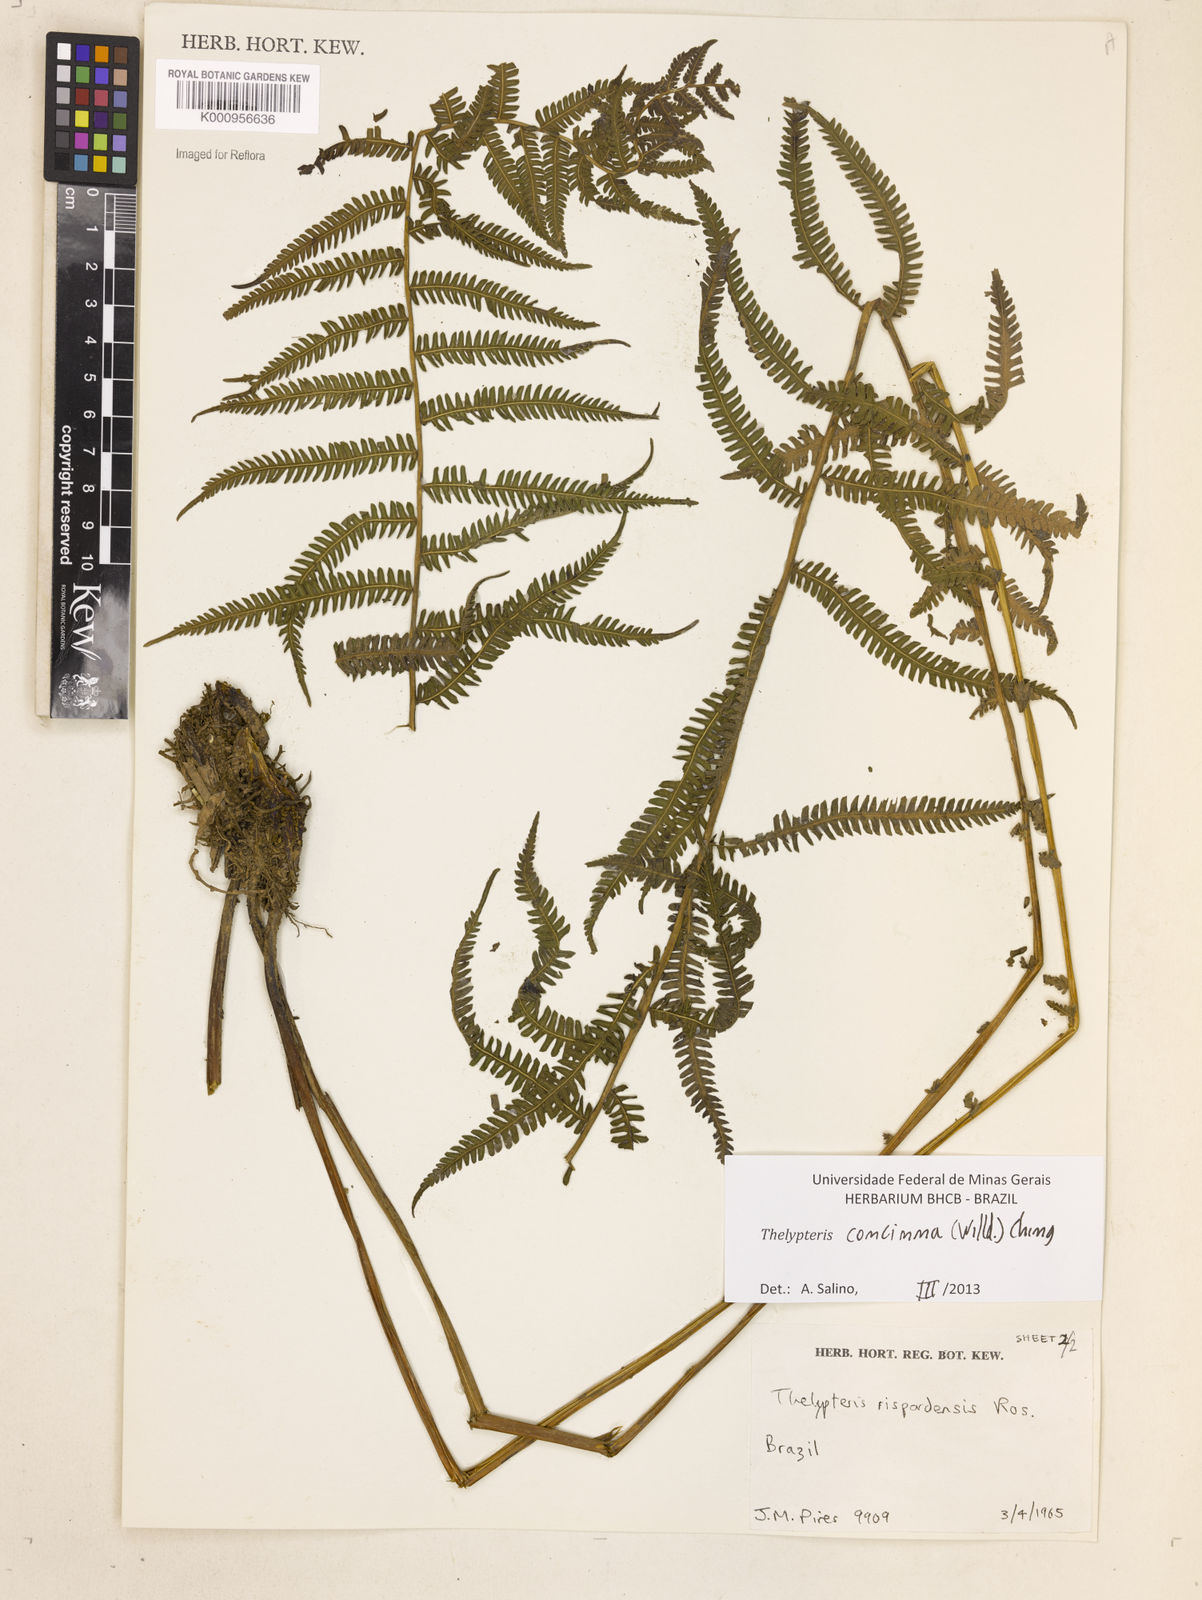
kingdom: Plantae
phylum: Tracheophyta
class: Polypodiopsida
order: Polypodiales
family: Thelypteridaceae
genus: Amauropelta
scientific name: Amauropelta concinna
